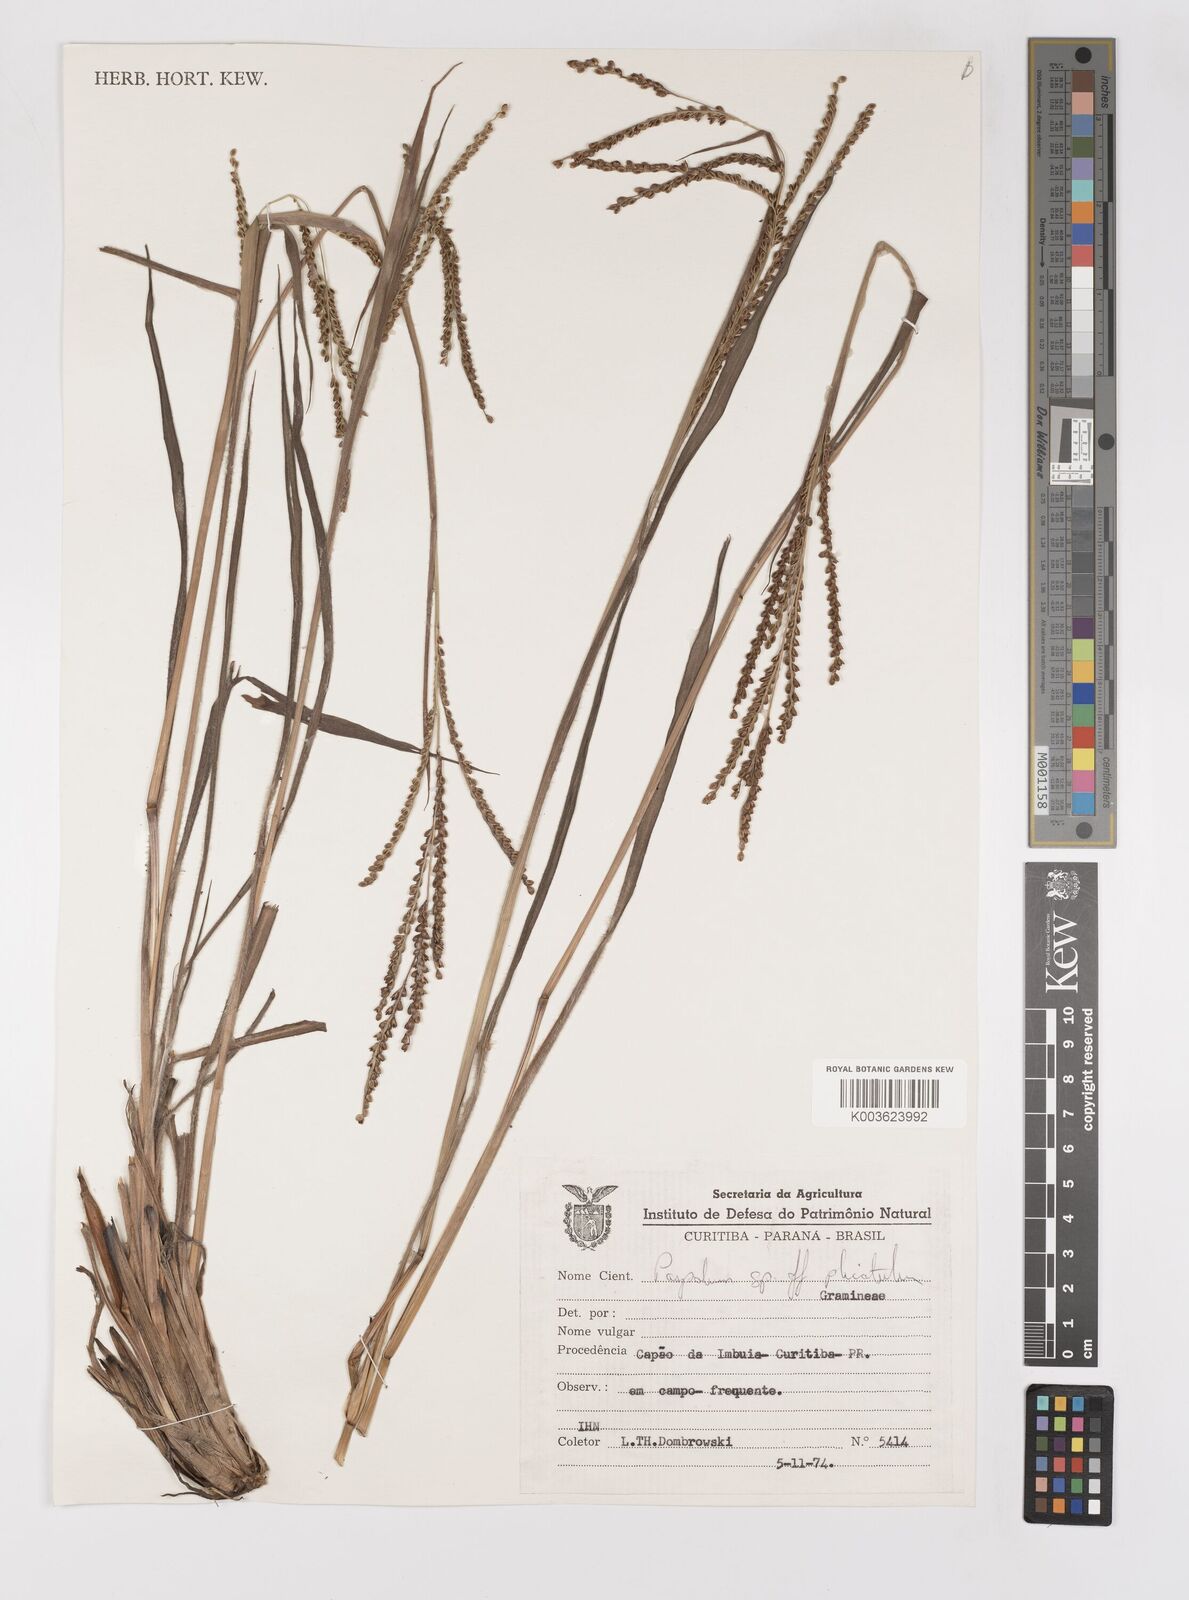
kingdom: Plantae
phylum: Tracheophyta
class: Liliopsida
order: Poales
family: Poaceae
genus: Paspalum
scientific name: Paspalum glaucescens
